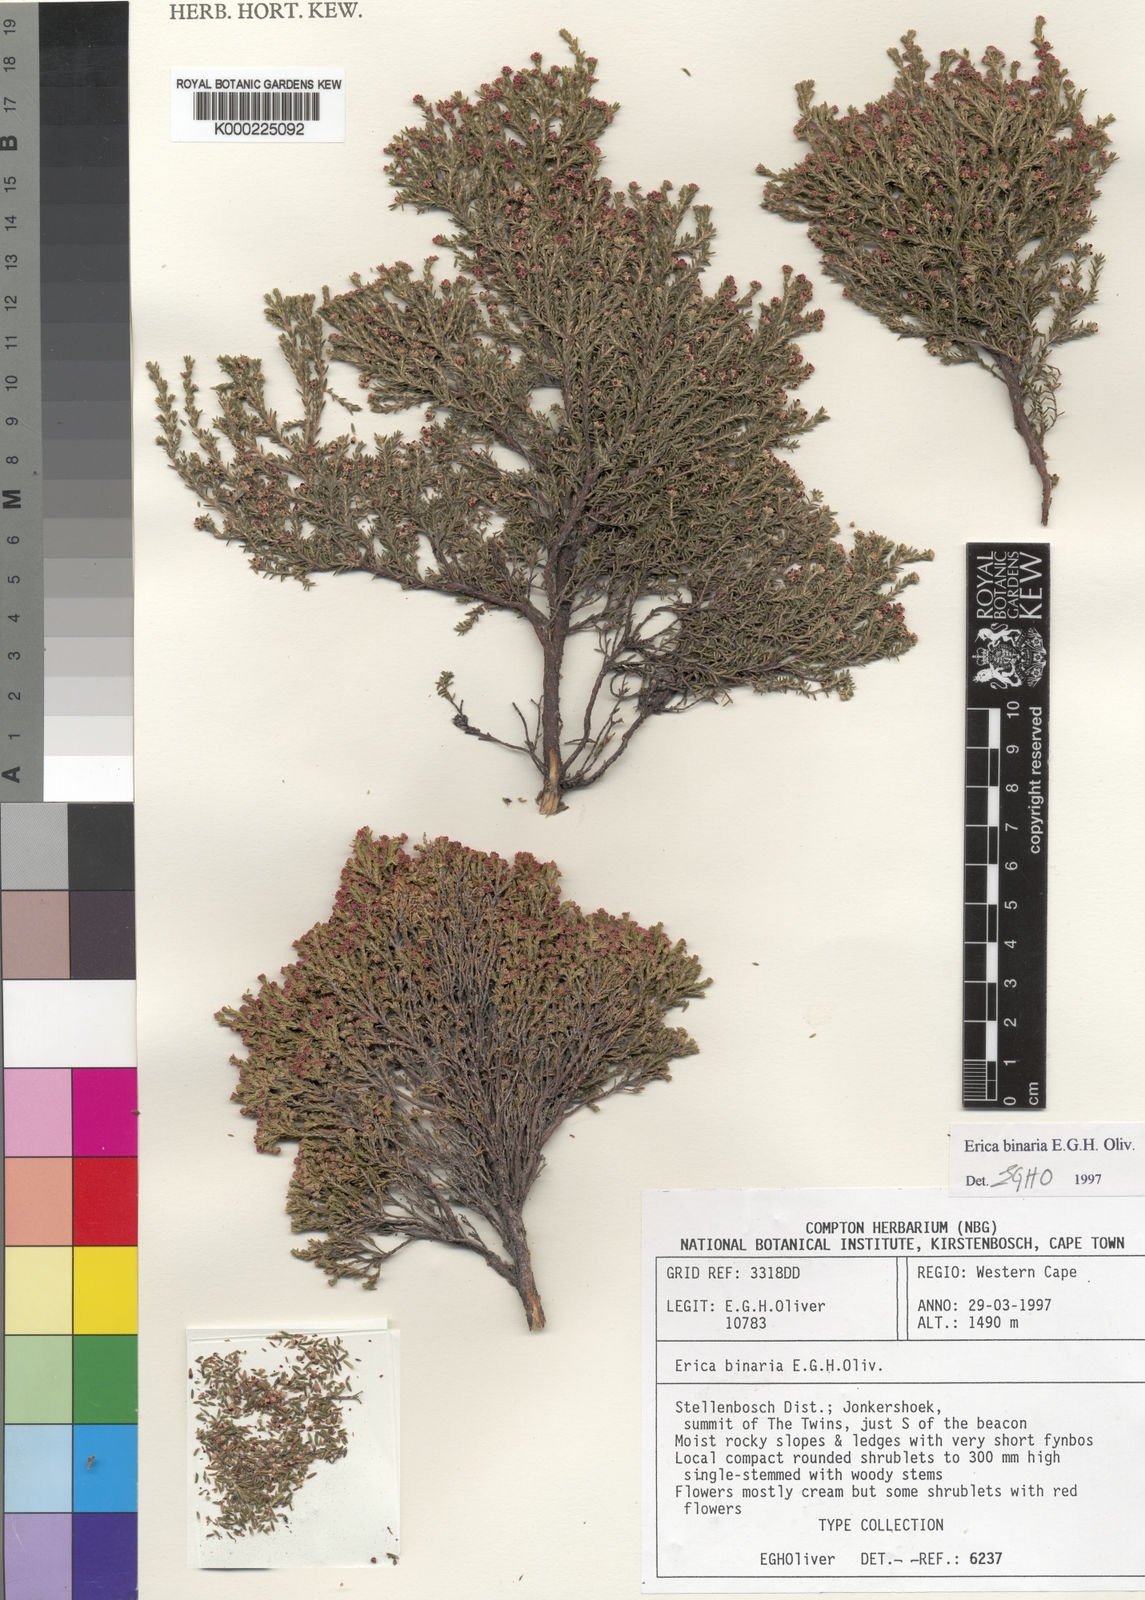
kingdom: Plantae
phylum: Tracheophyta
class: Magnoliopsida
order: Ericales
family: Ericaceae
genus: Erica
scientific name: Erica binaria
